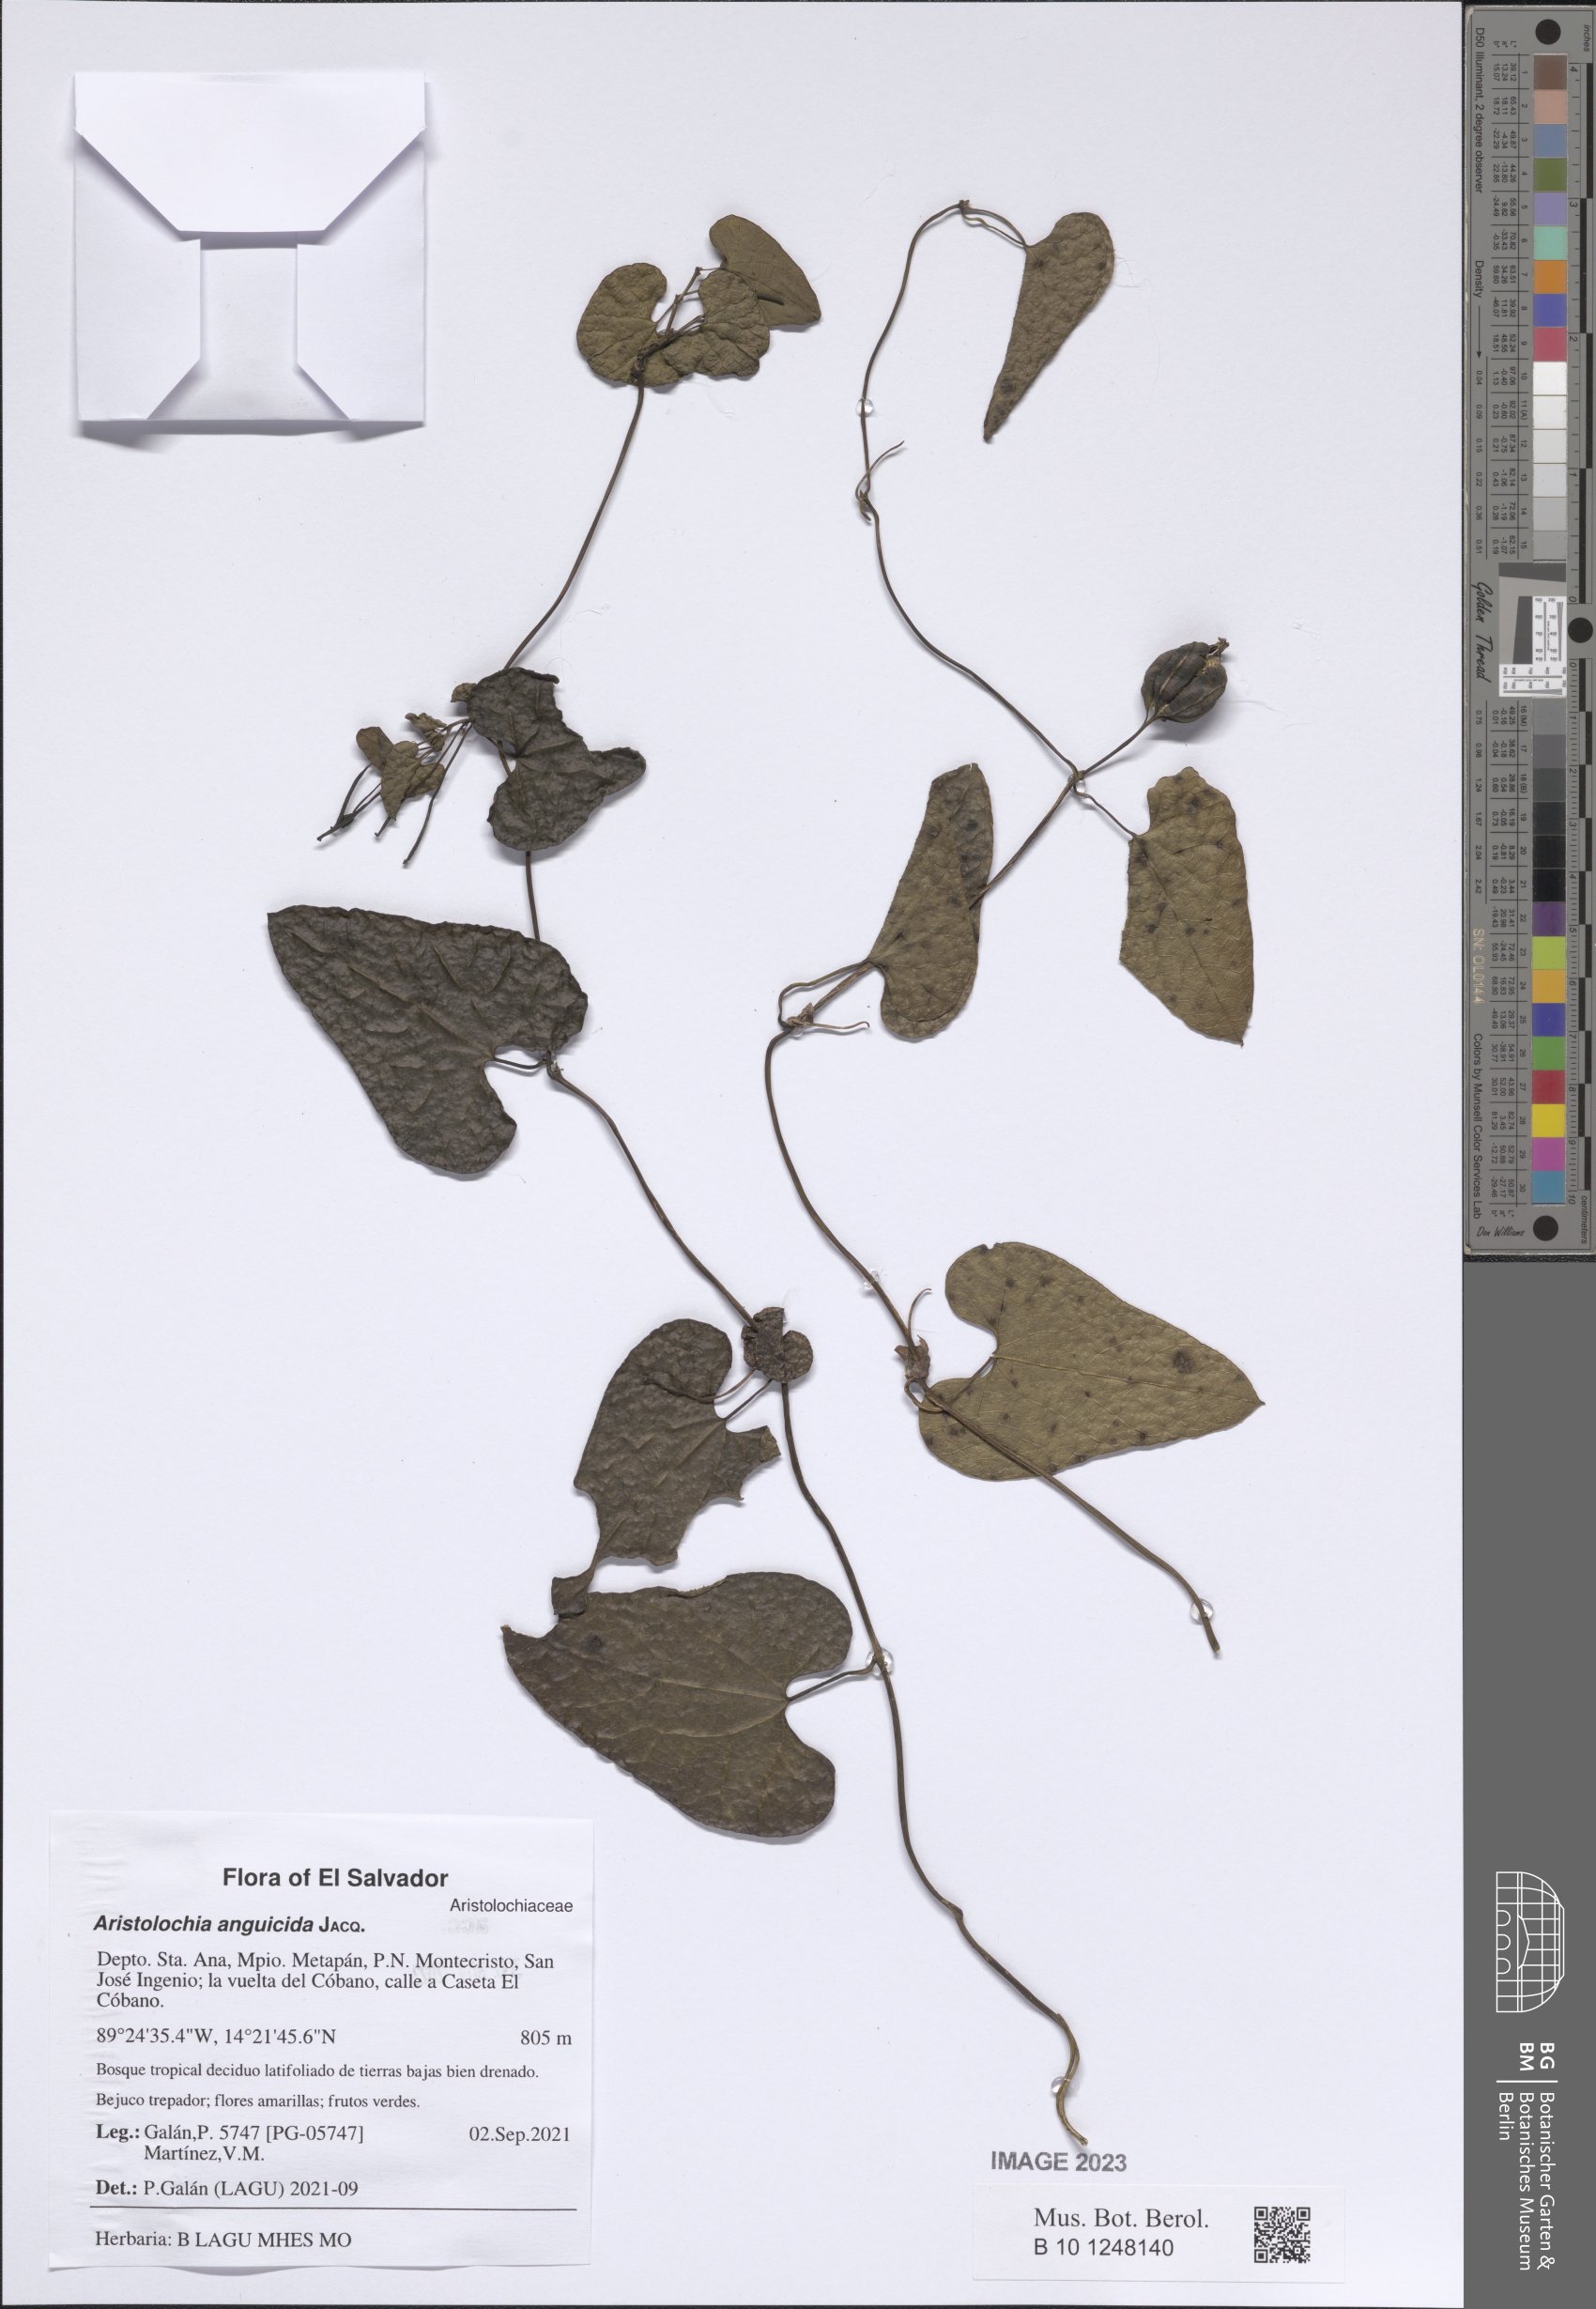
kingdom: Plantae
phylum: Tracheophyta
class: Magnoliopsida
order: Piperales
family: Aristolochiaceae
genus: Aristolochia
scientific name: Aristolochia anguicida
